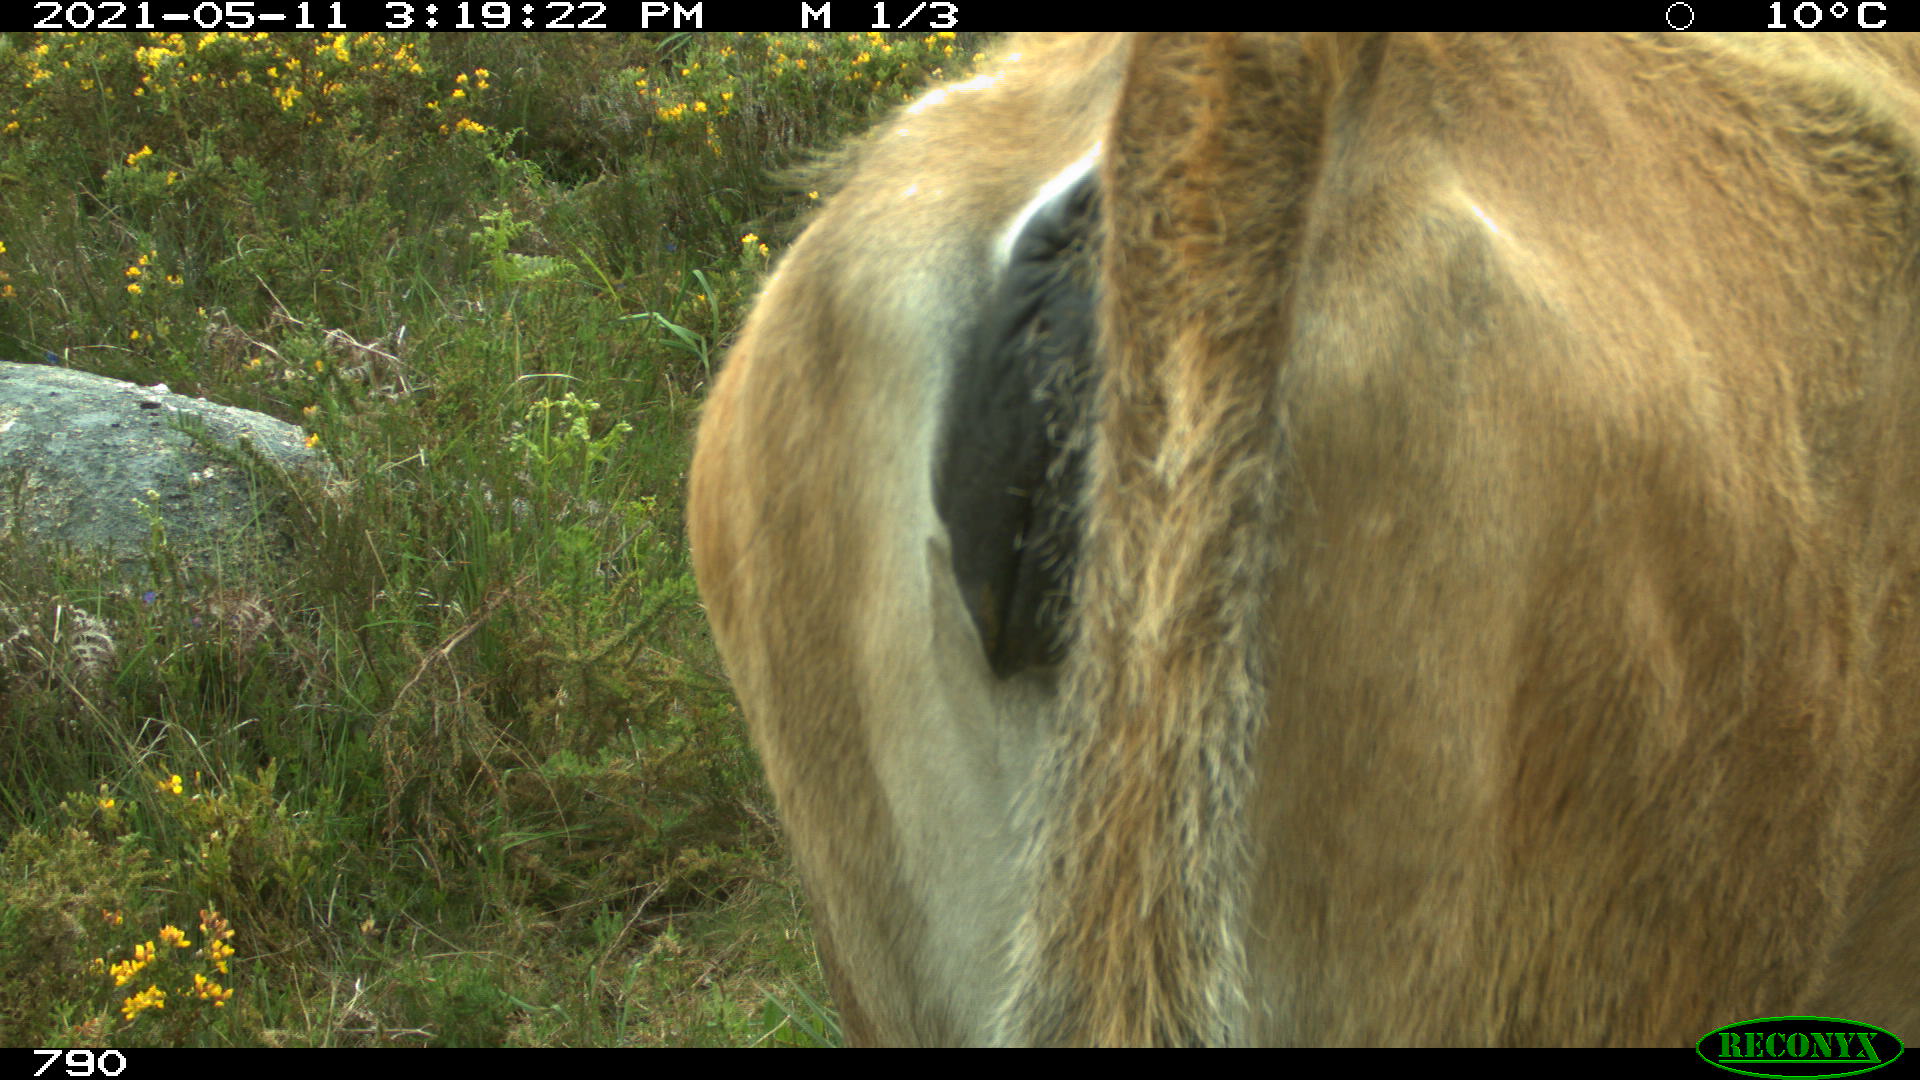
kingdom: Animalia
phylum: Chordata
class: Mammalia
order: Artiodactyla
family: Bovidae
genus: Bos
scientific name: Bos taurus
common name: Domesticated cattle
